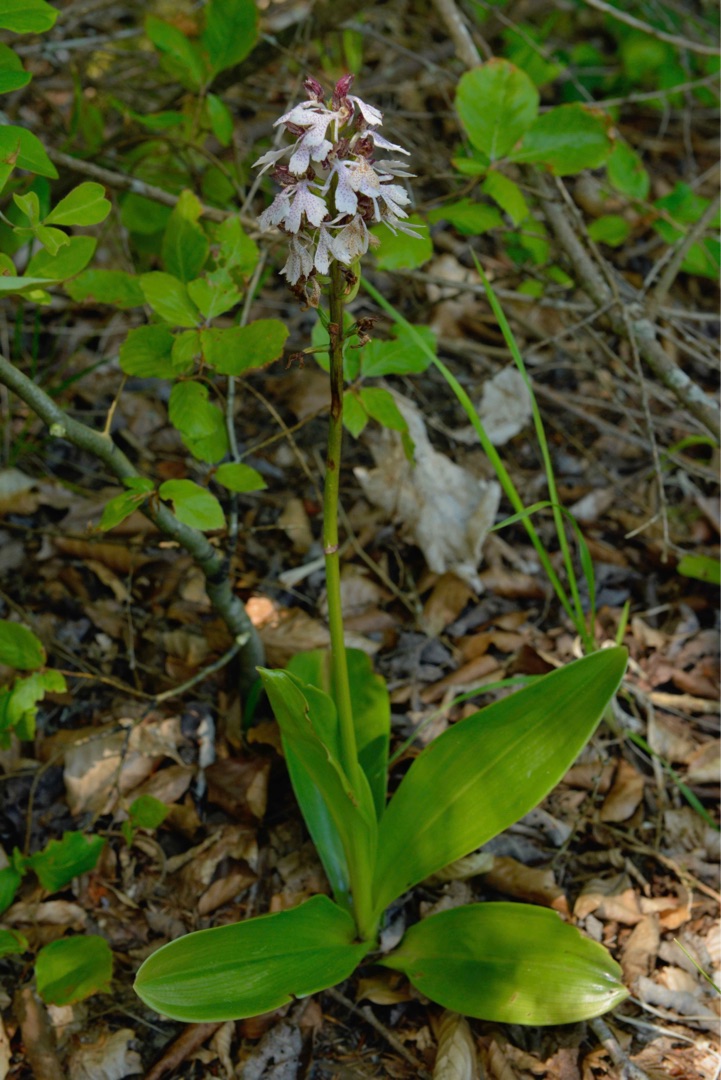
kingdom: Plantae
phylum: Tracheophyta
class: Liliopsida
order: Asparagales
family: Orchidaceae
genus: Orchis
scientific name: Orchis purpurea
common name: Stor gøgeurt
